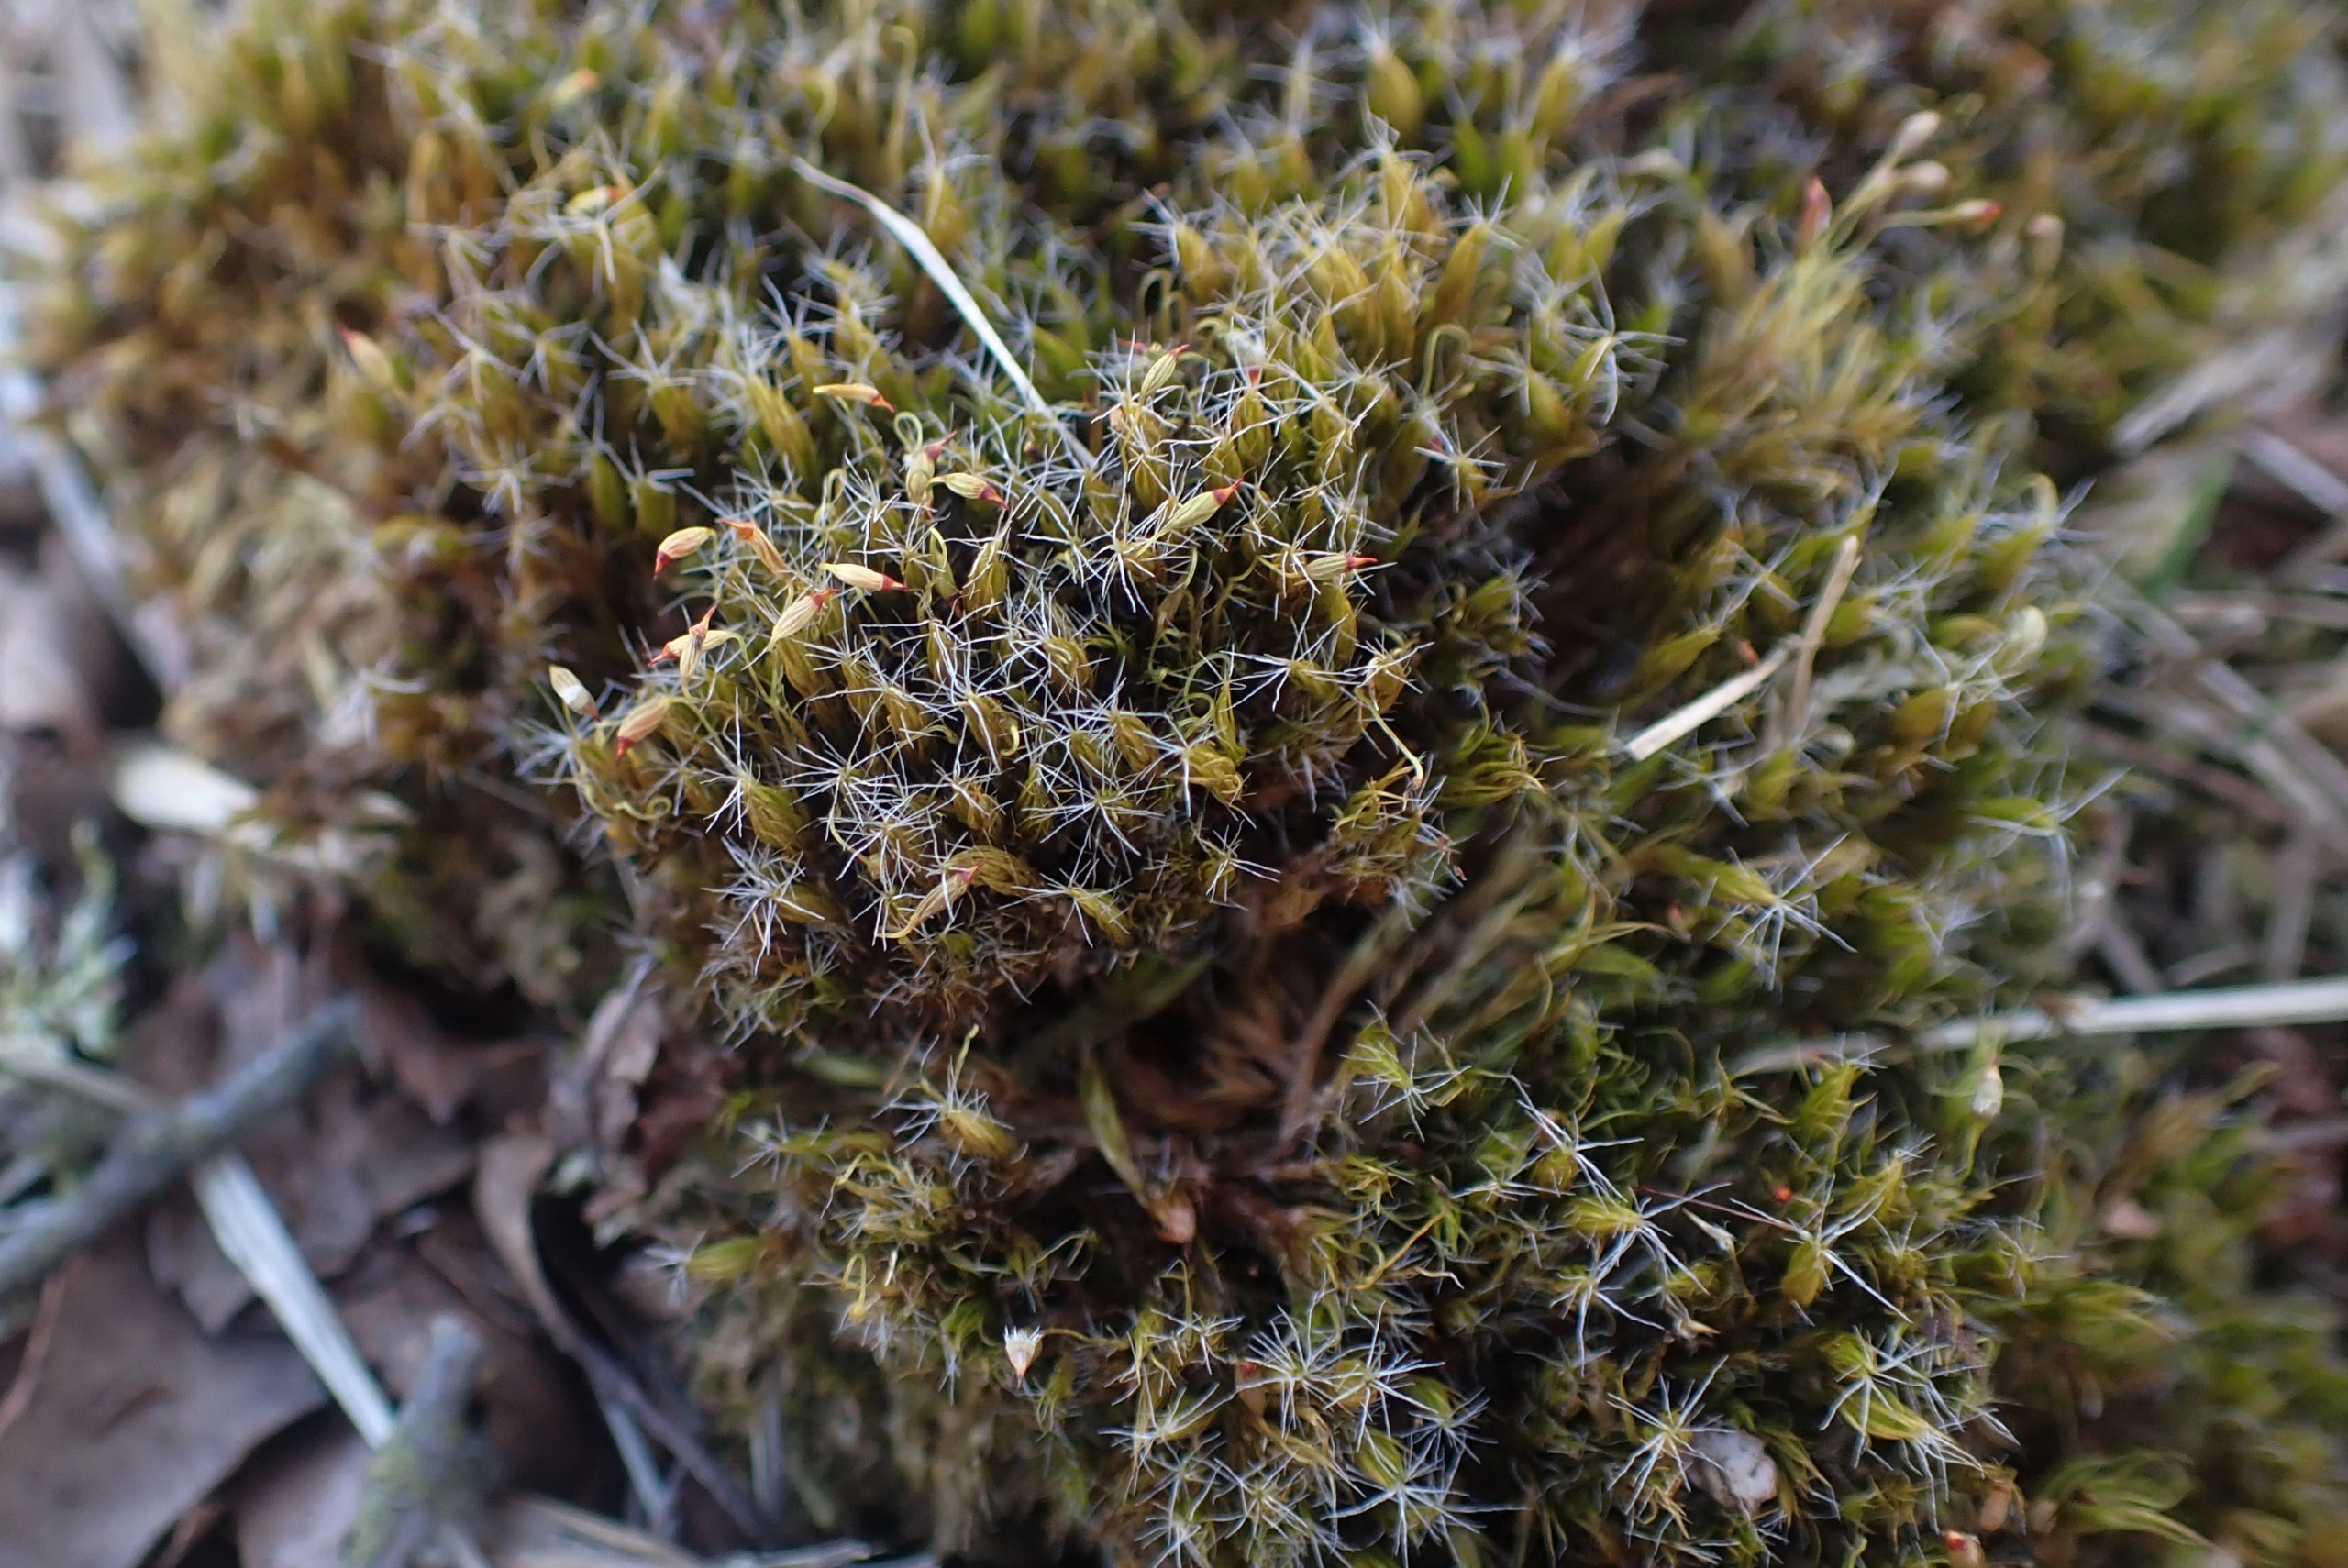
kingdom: Plantae
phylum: Bryophyta
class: Bryopsida
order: Dicranales
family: Leucobryaceae
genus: Campylopus
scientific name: Campylopus introflexus
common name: Stjerne-bredribbe
